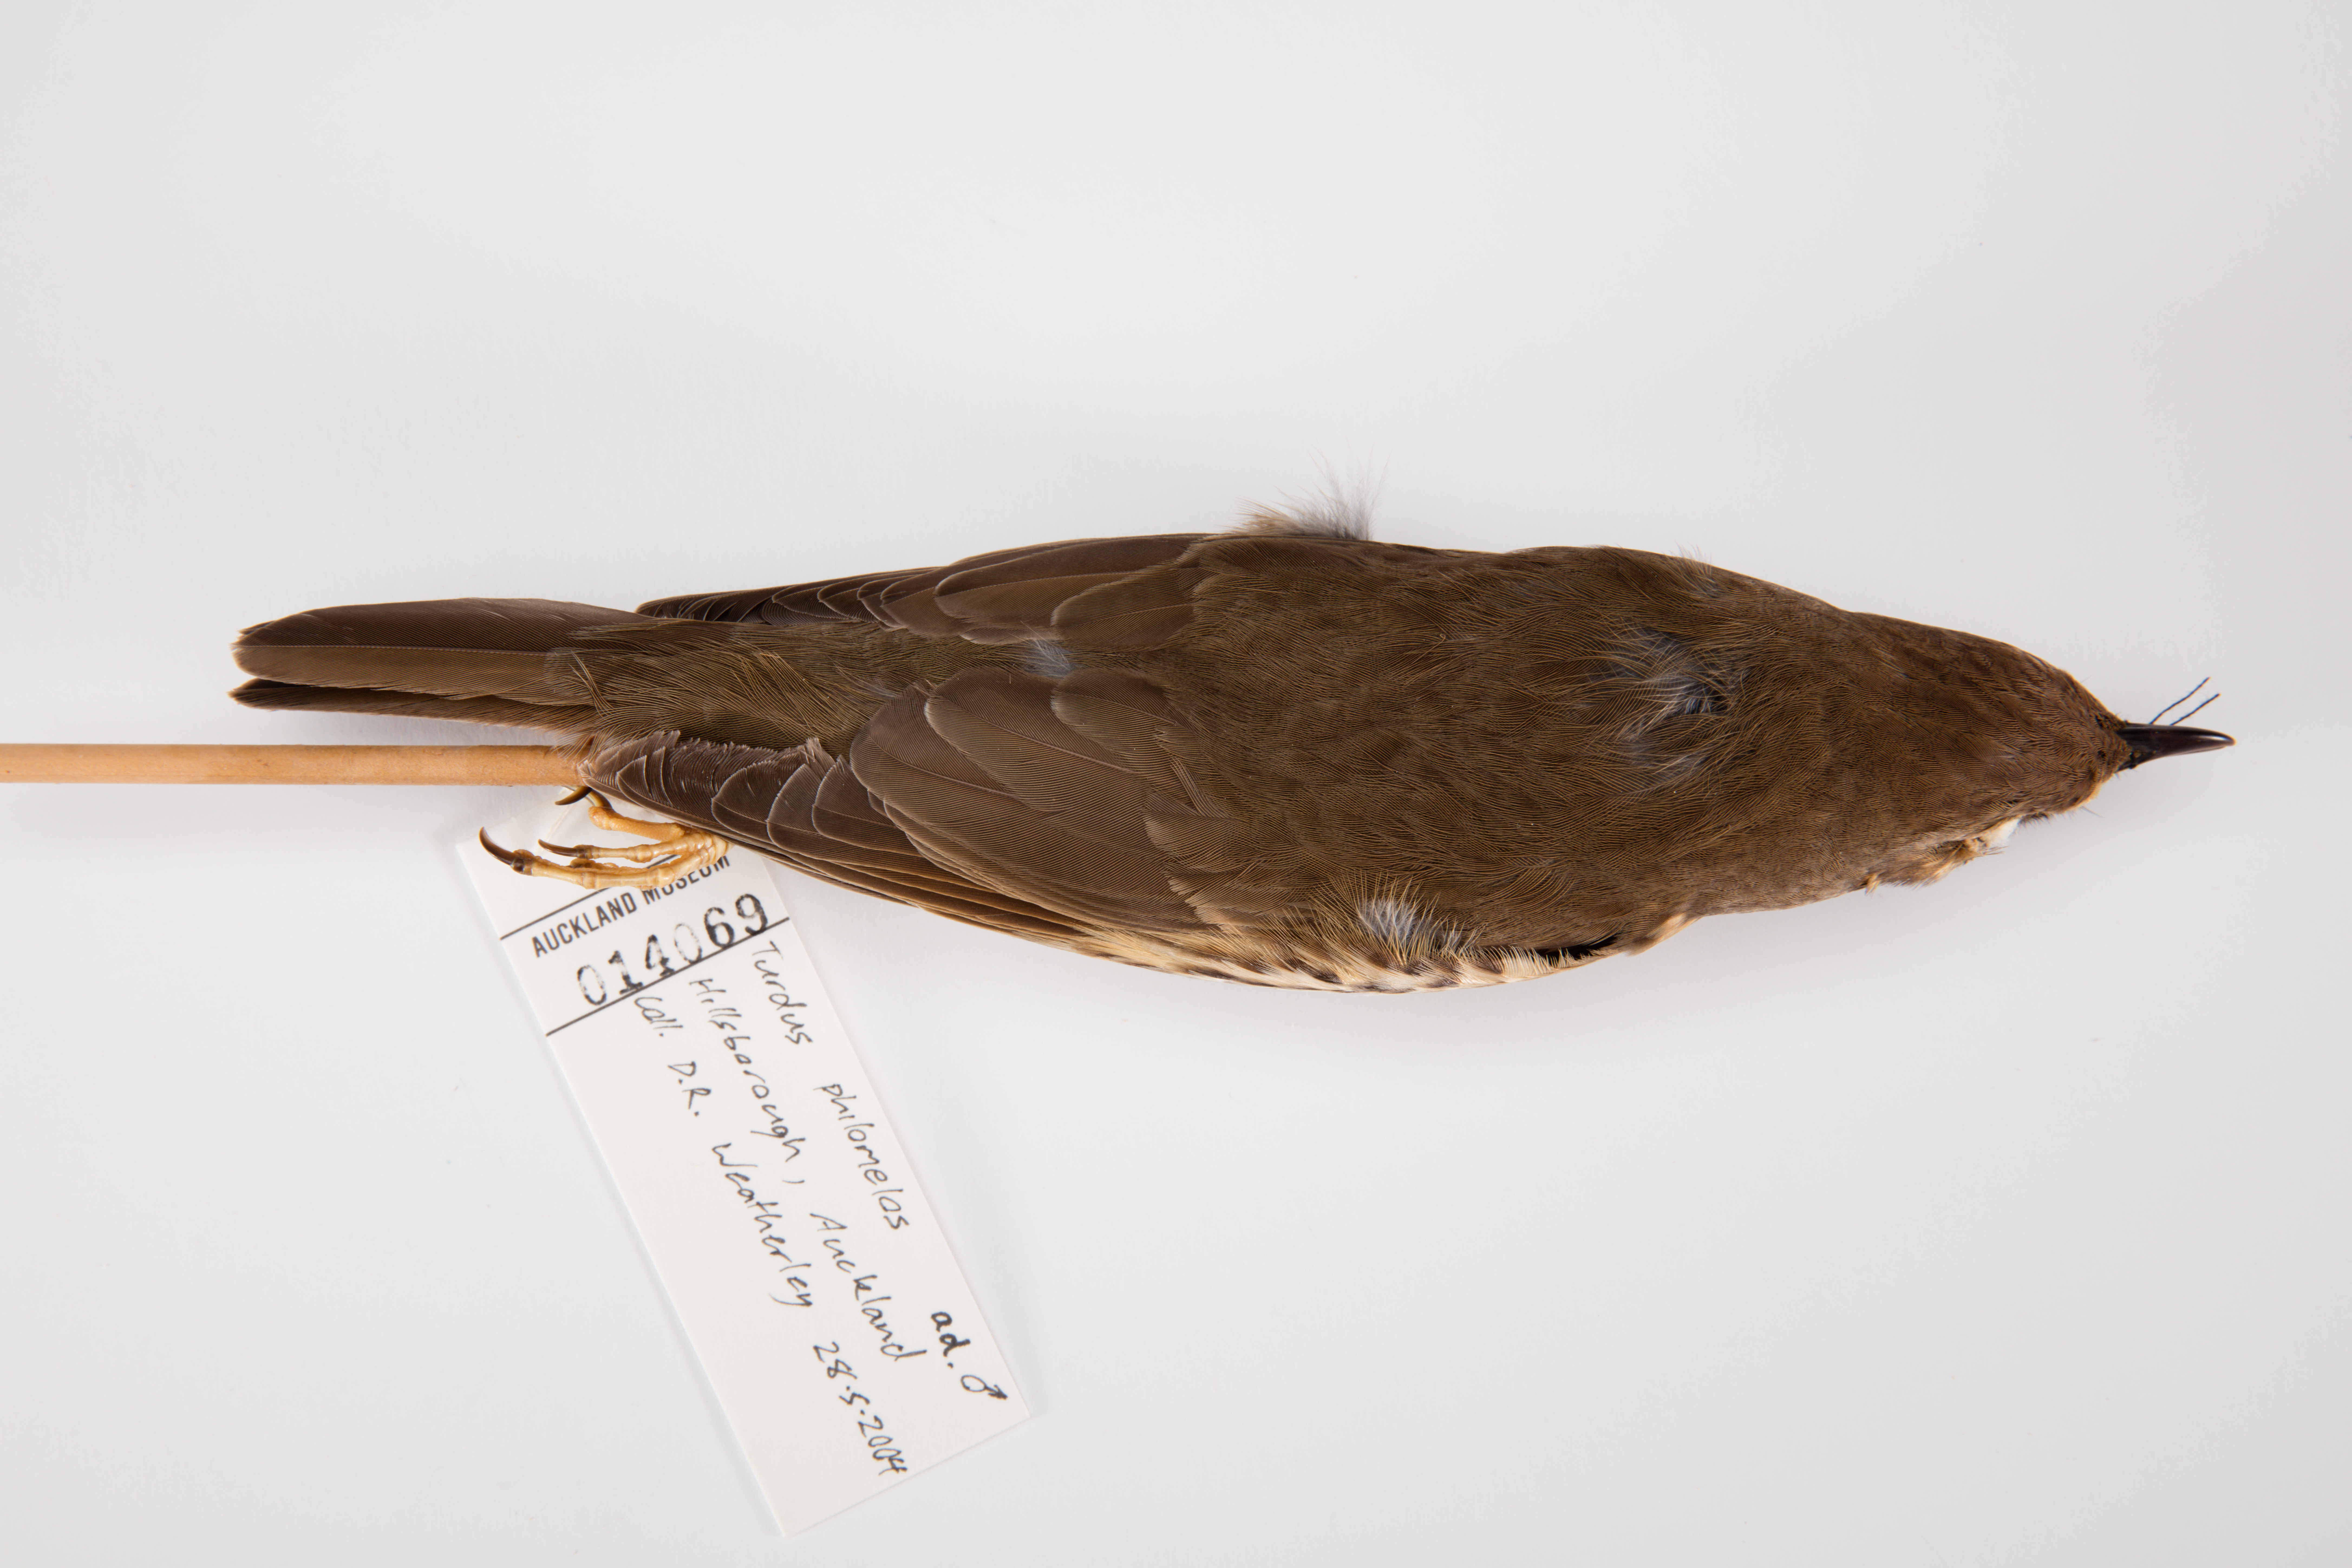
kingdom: Animalia
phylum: Chordata
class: Aves
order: Passeriformes
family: Turdidae
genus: Turdus
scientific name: Turdus philomelos
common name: Song thrush
